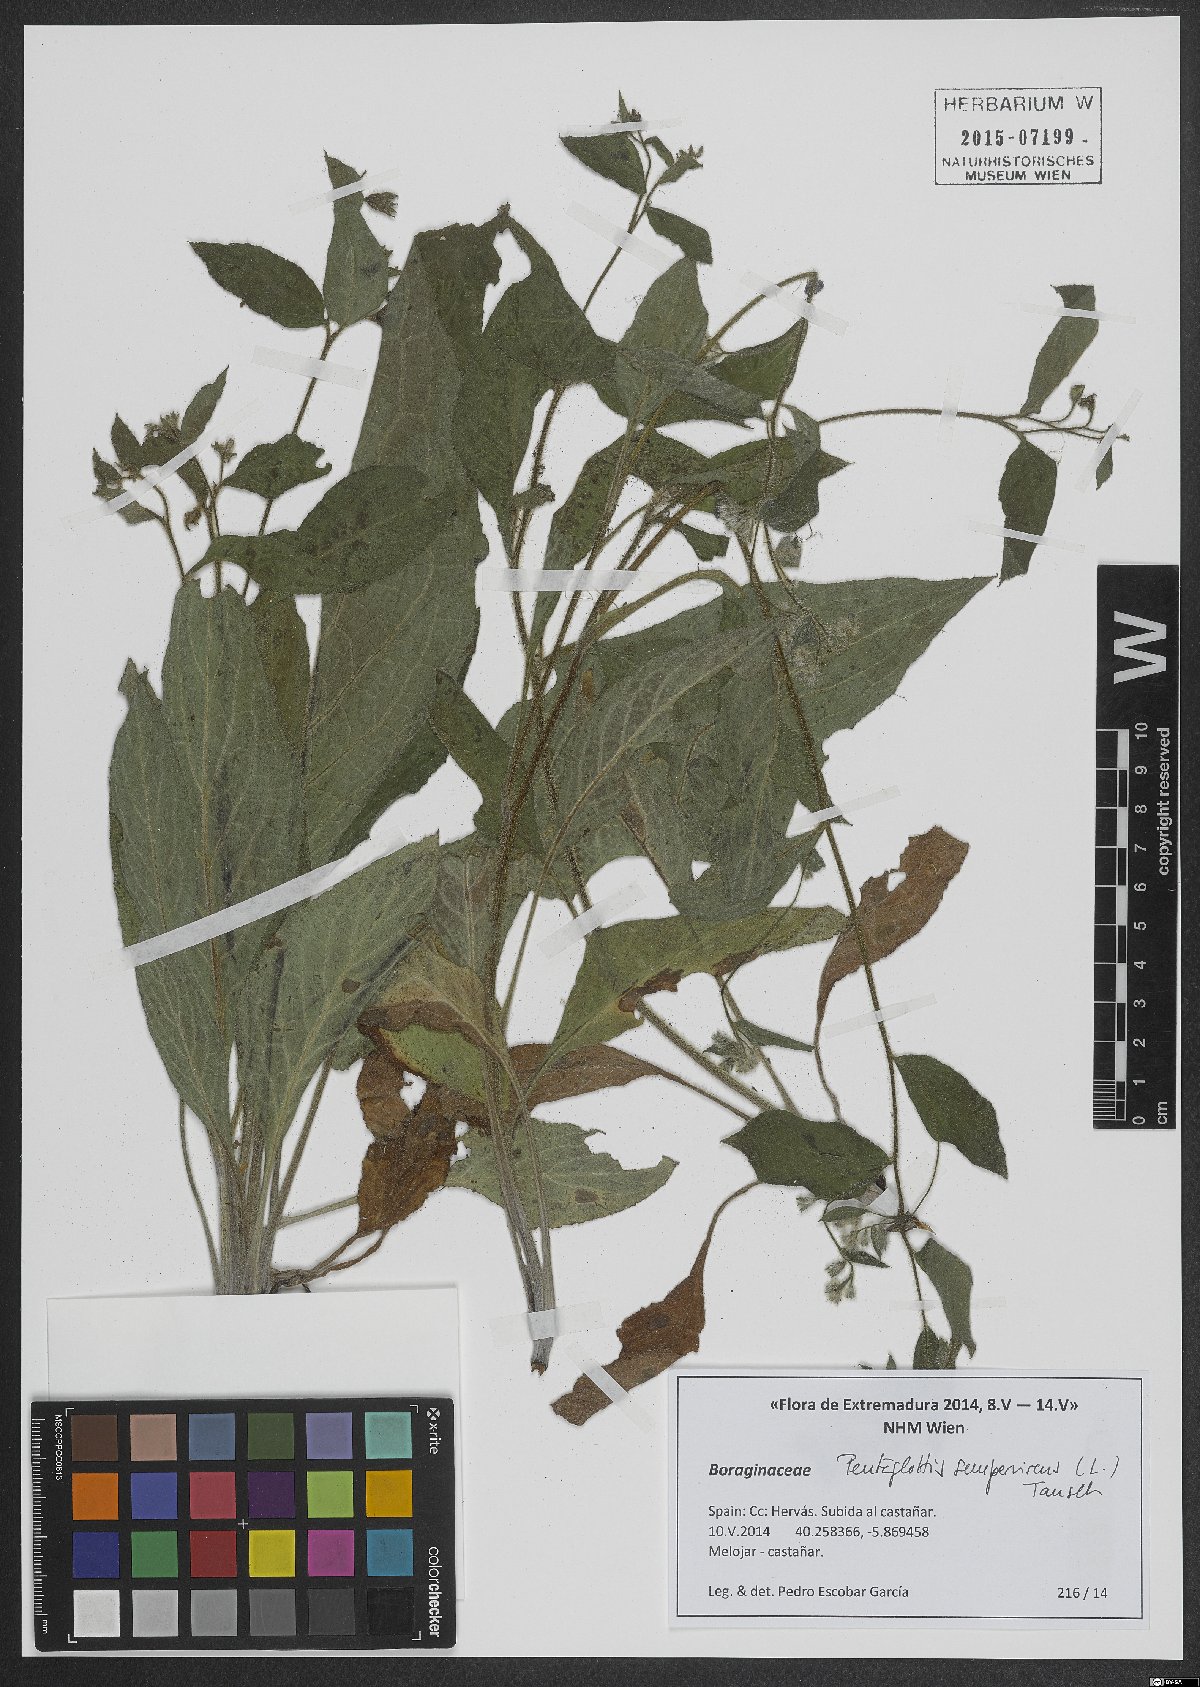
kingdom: Plantae
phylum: Tracheophyta
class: Magnoliopsida
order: Boraginales
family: Boraginaceae
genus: Pentaglottis
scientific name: Pentaglottis sempervirens
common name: Green alkanet
